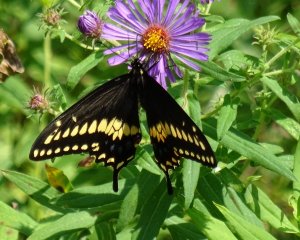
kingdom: Animalia
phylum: Arthropoda
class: Insecta
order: Lepidoptera
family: Papilionidae
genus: Papilio
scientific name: Papilio polyxenes
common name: Black Swallowtail
